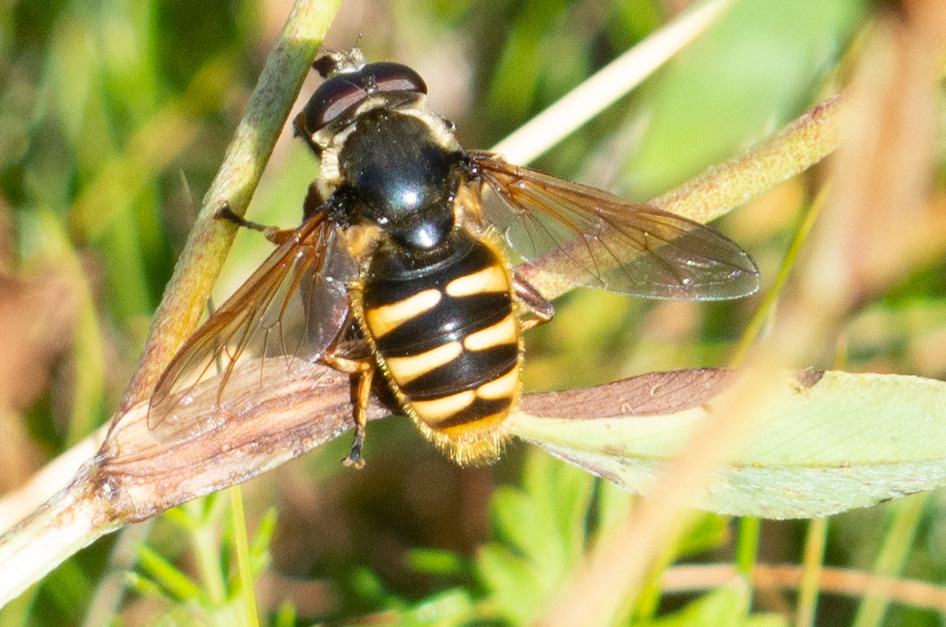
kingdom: Animalia
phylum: Arthropoda
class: Insecta
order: Diptera
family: Syrphidae
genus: Sericomyia
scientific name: Sericomyia silentis
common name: Tørve-silkesvirreflue
